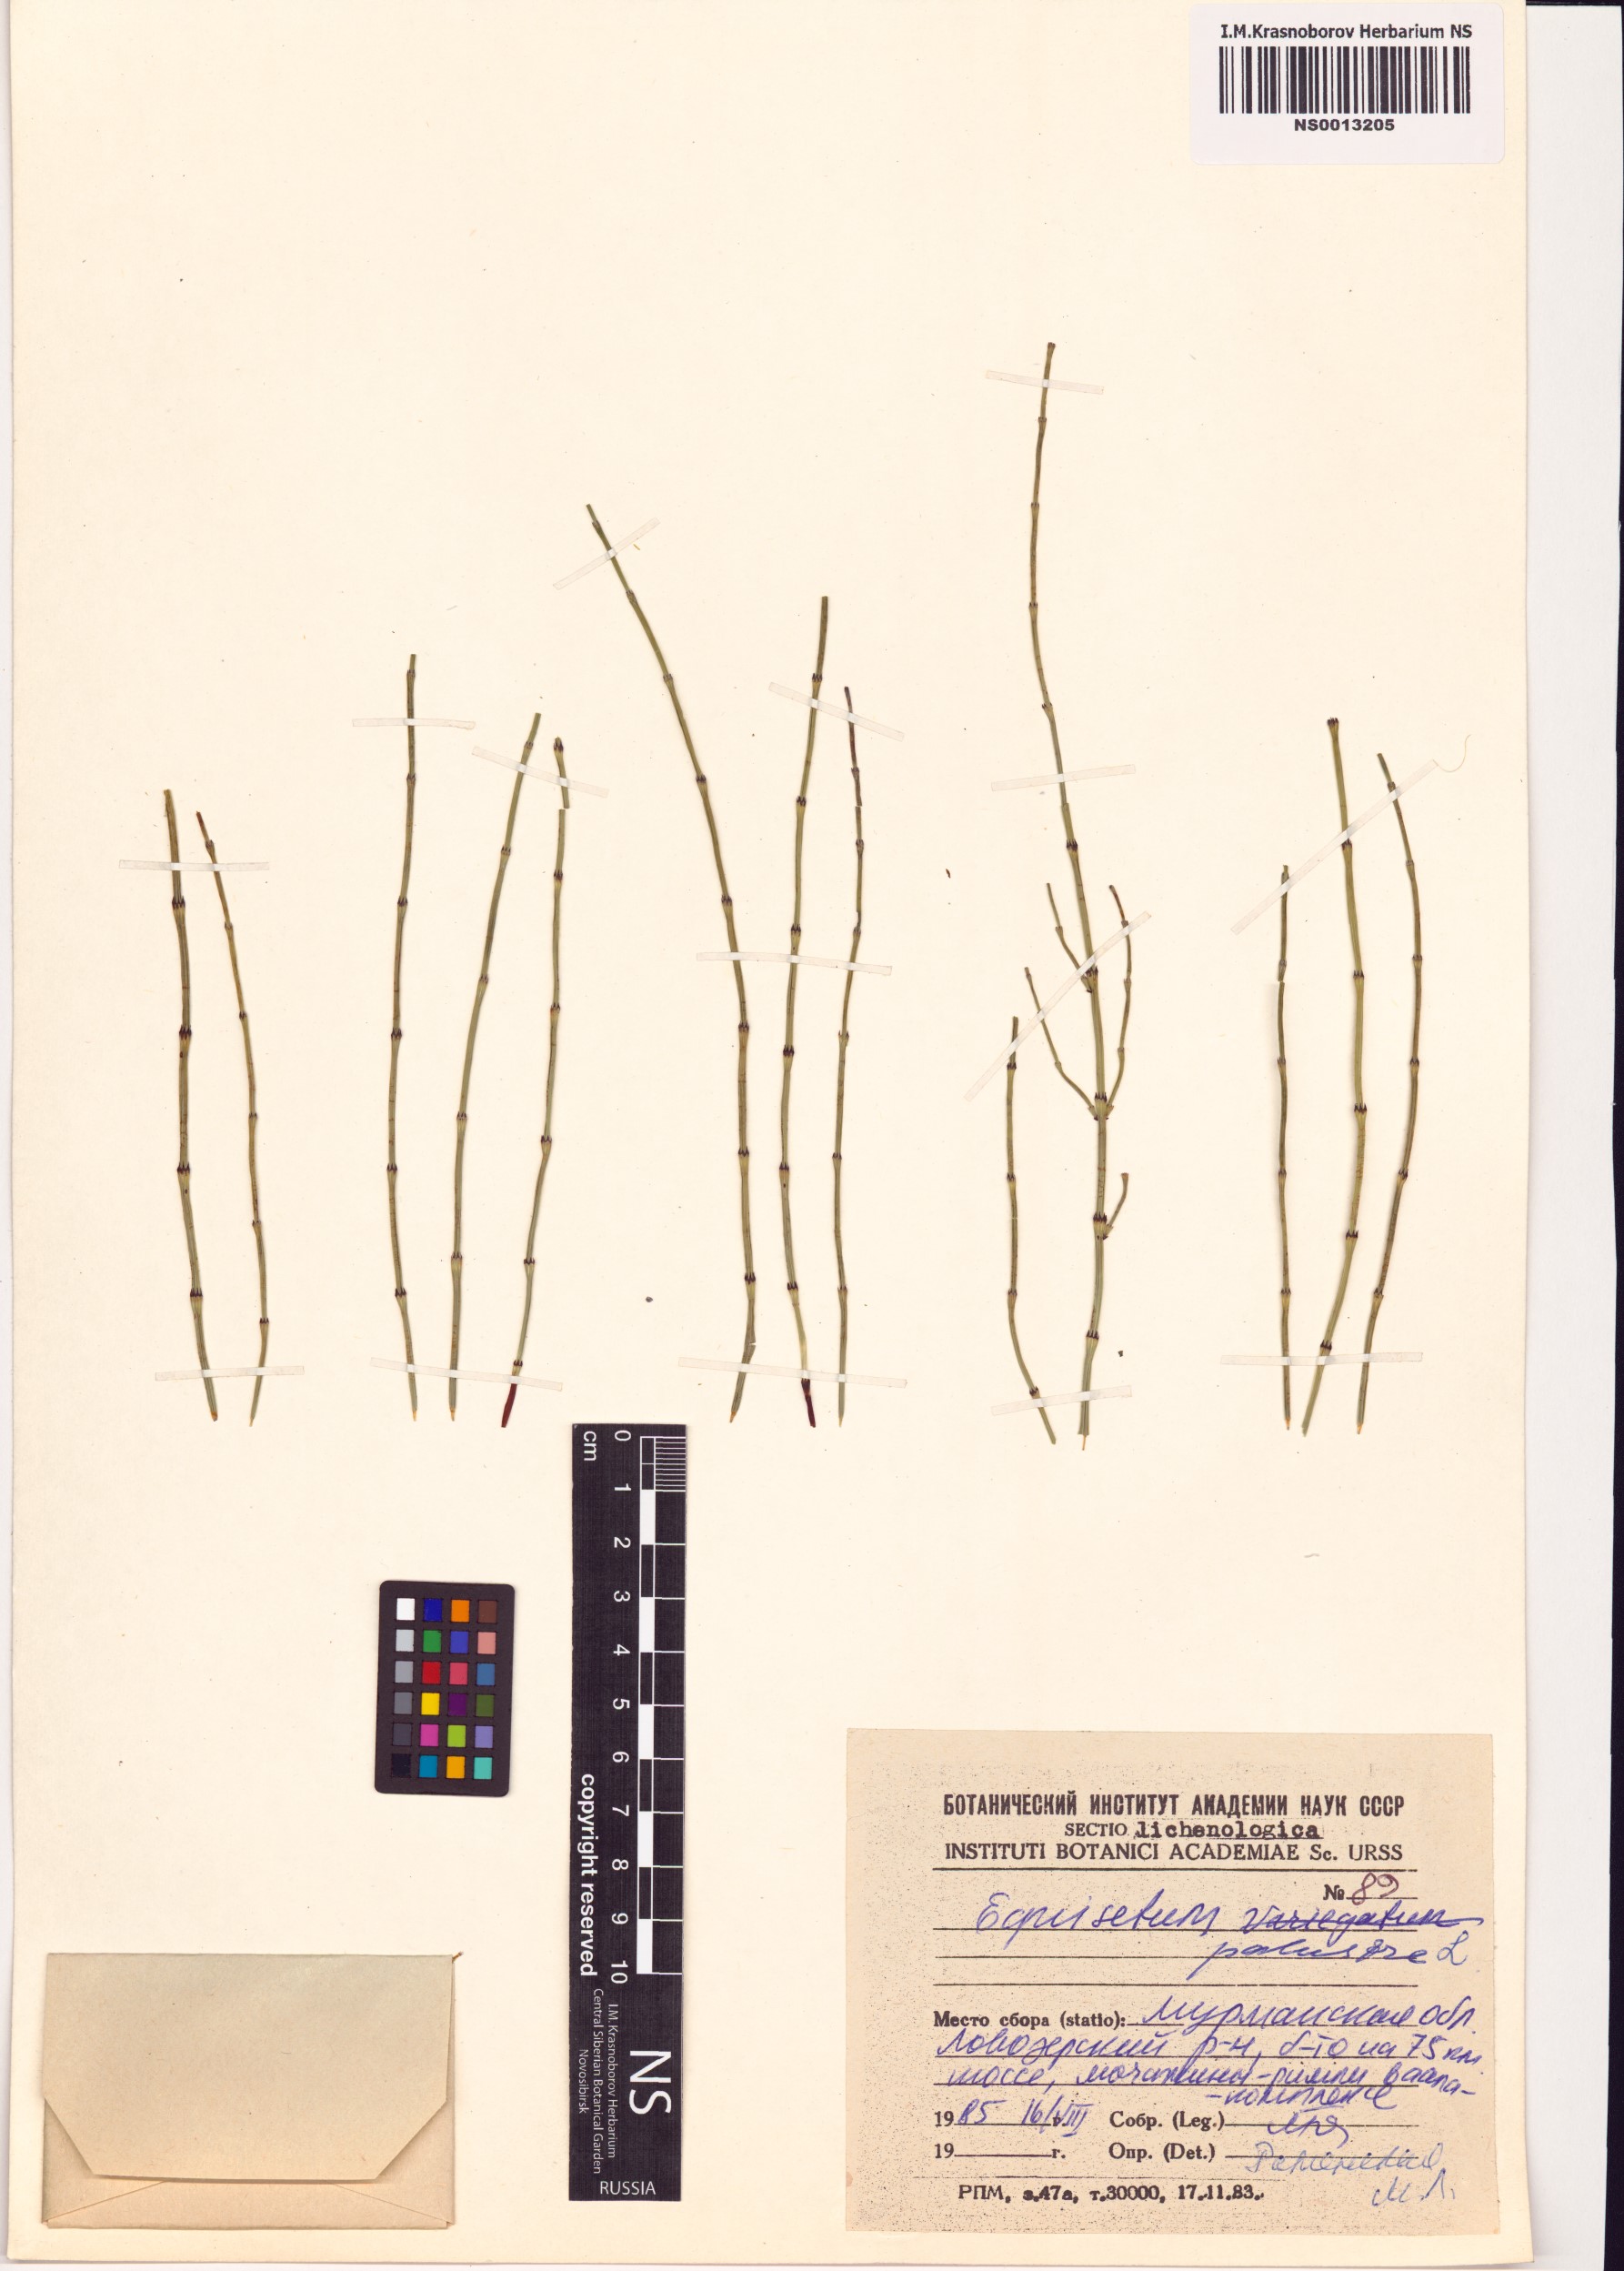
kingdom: Plantae
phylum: Tracheophyta
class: Polypodiopsida
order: Equisetales
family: Equisetaceae
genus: Equisetum
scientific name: Equisetum palustre
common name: Marsh horsetail
